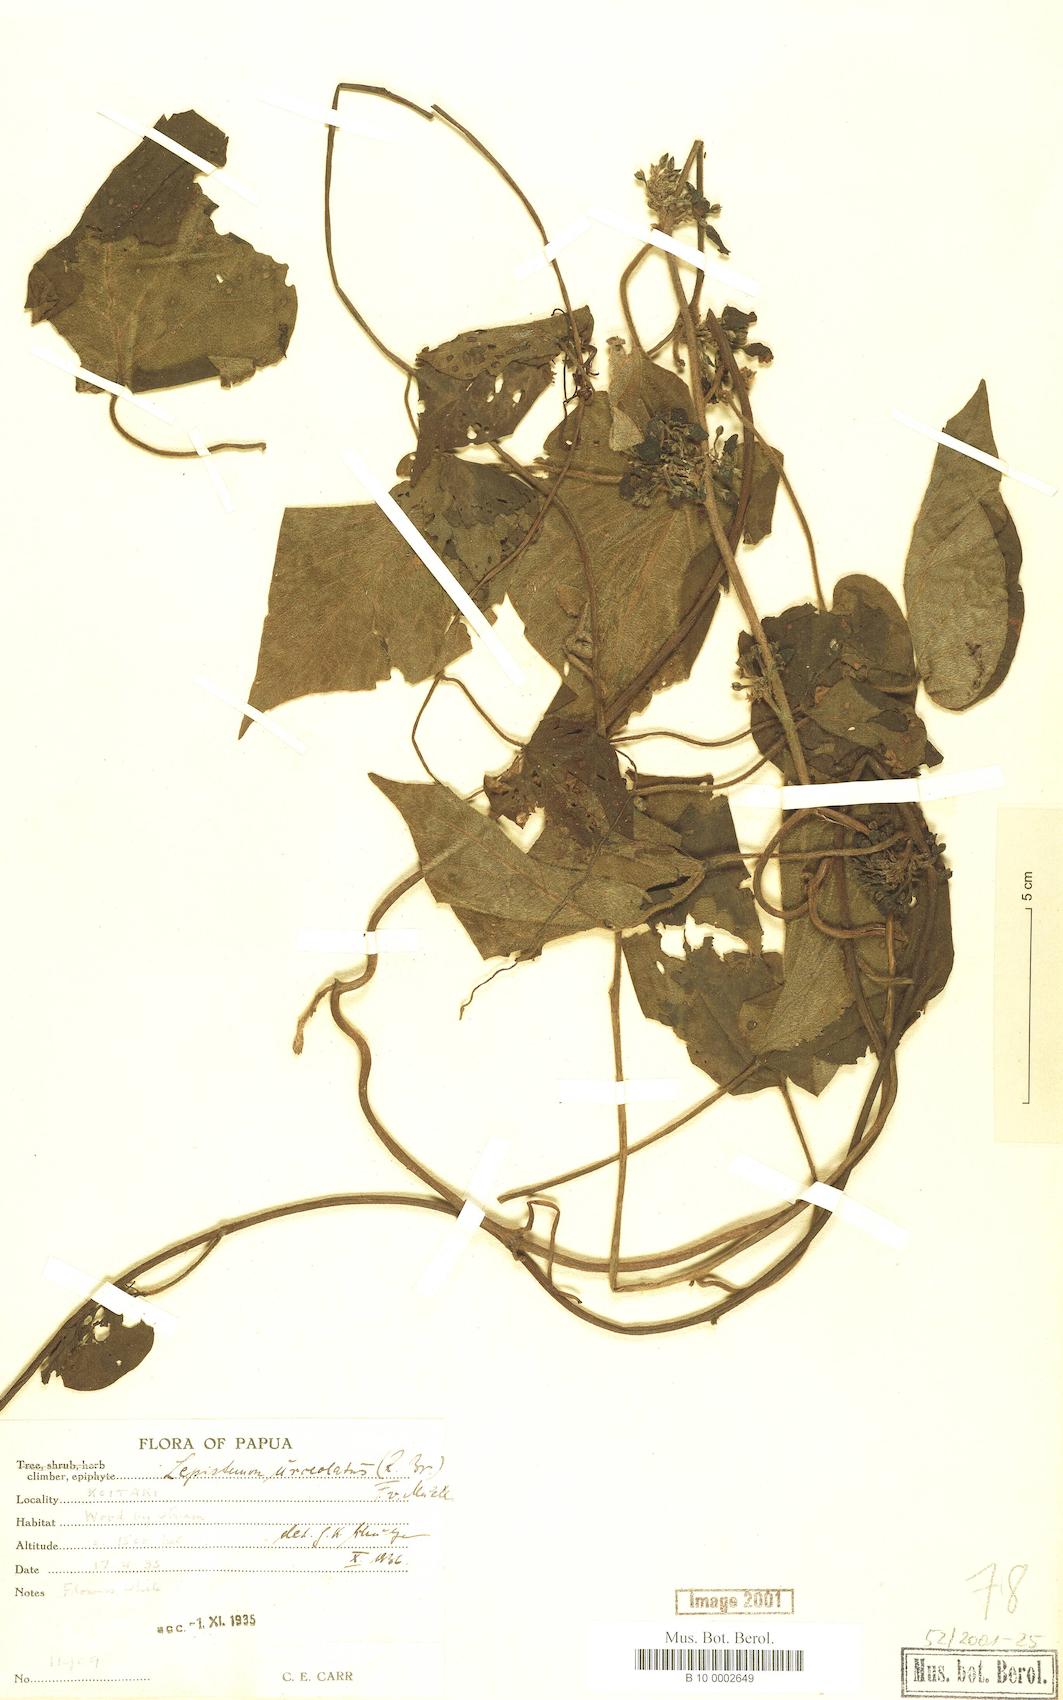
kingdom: Plantae
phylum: Tracheophyta
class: Magnoliopsida
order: Solanales
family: Convolvulaceae
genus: Lepistemon
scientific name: Lepistemon urceolatus
